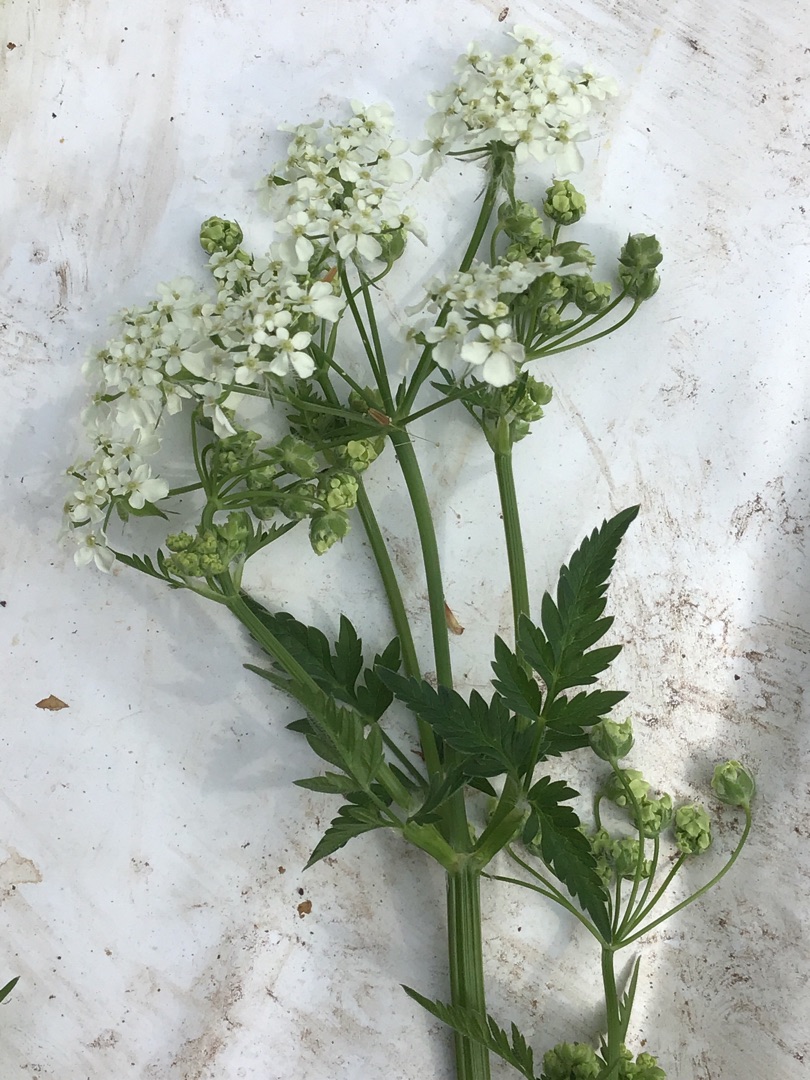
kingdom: Plantae
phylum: Tracheophyta
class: Magnoliopsida
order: Apiales
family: Apiaceae
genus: Anthriscus
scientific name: Anthriscus sylvestris
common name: Vild kørvel
